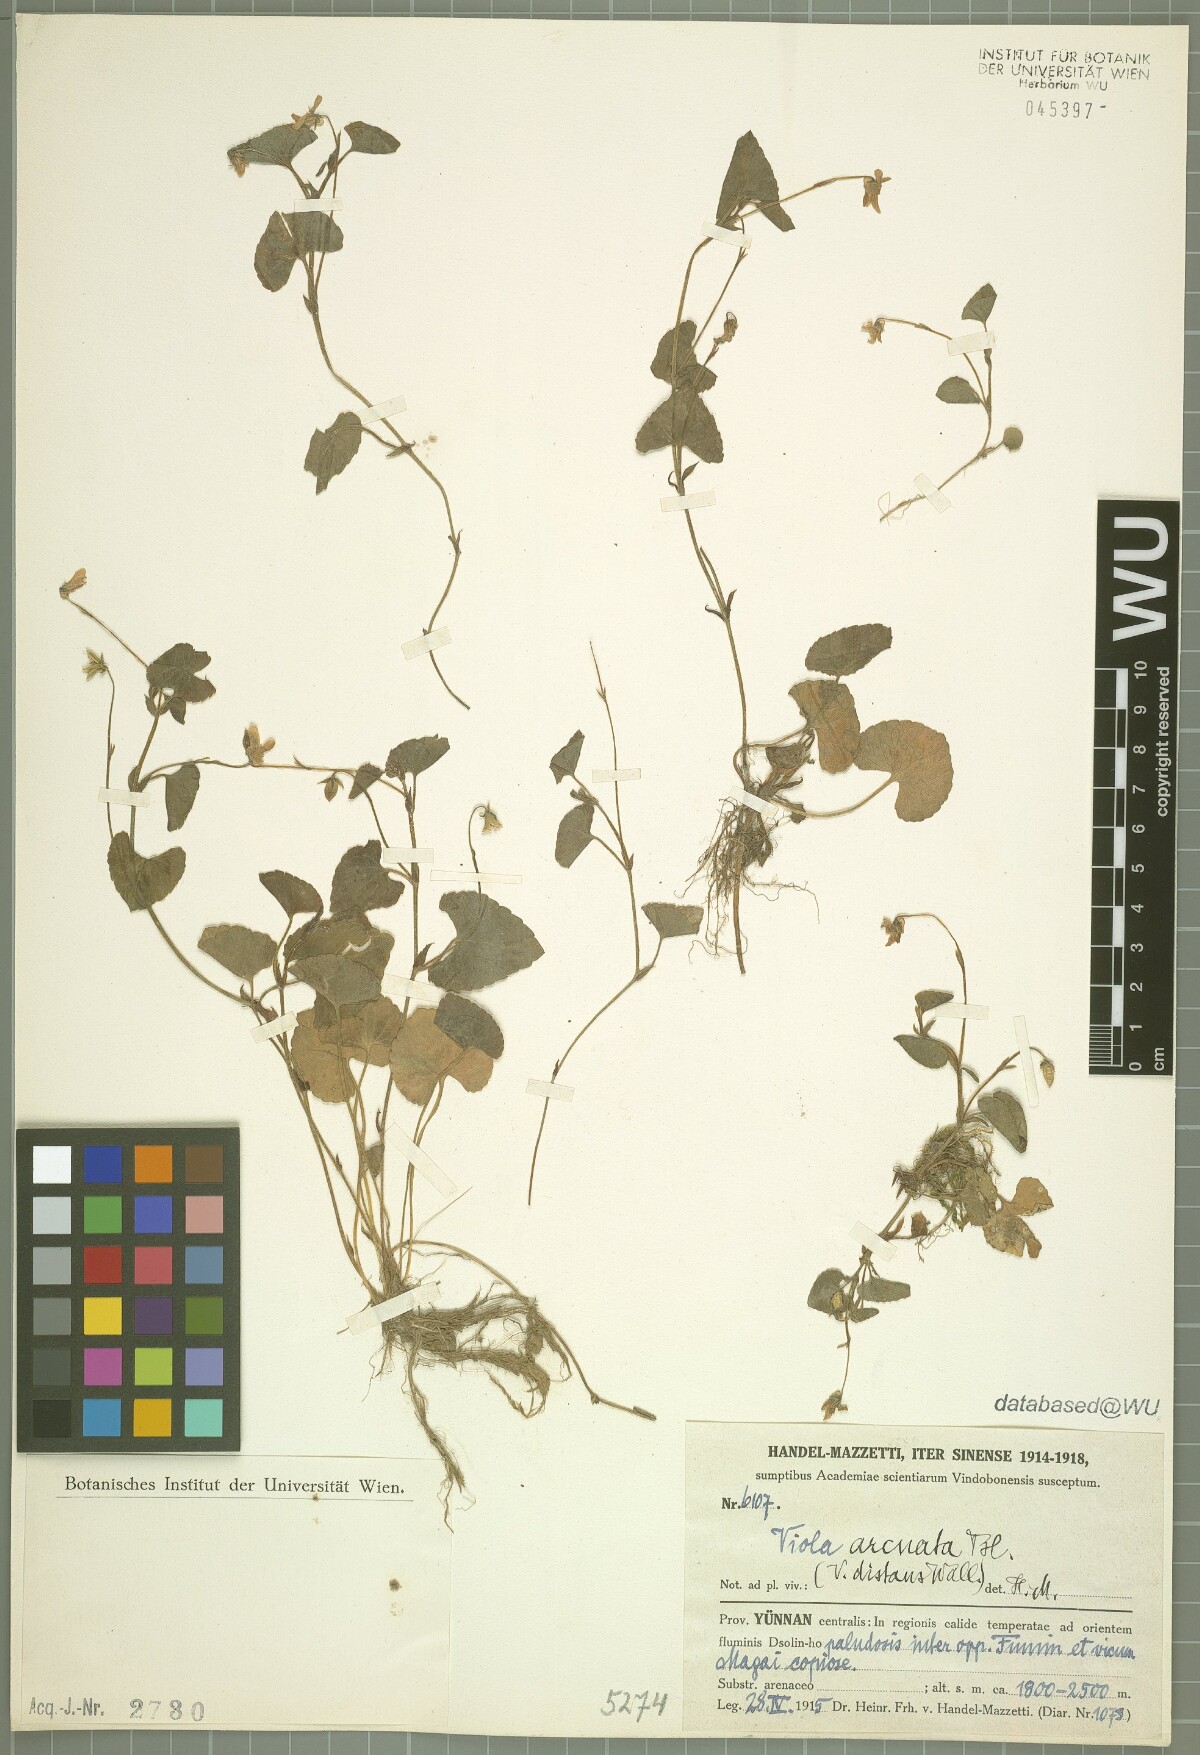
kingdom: Plantae
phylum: Tracheophyta
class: Magnoliopsida
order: Malpighiales
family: Violaceae
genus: Viola
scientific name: Viola hamiltoniana
